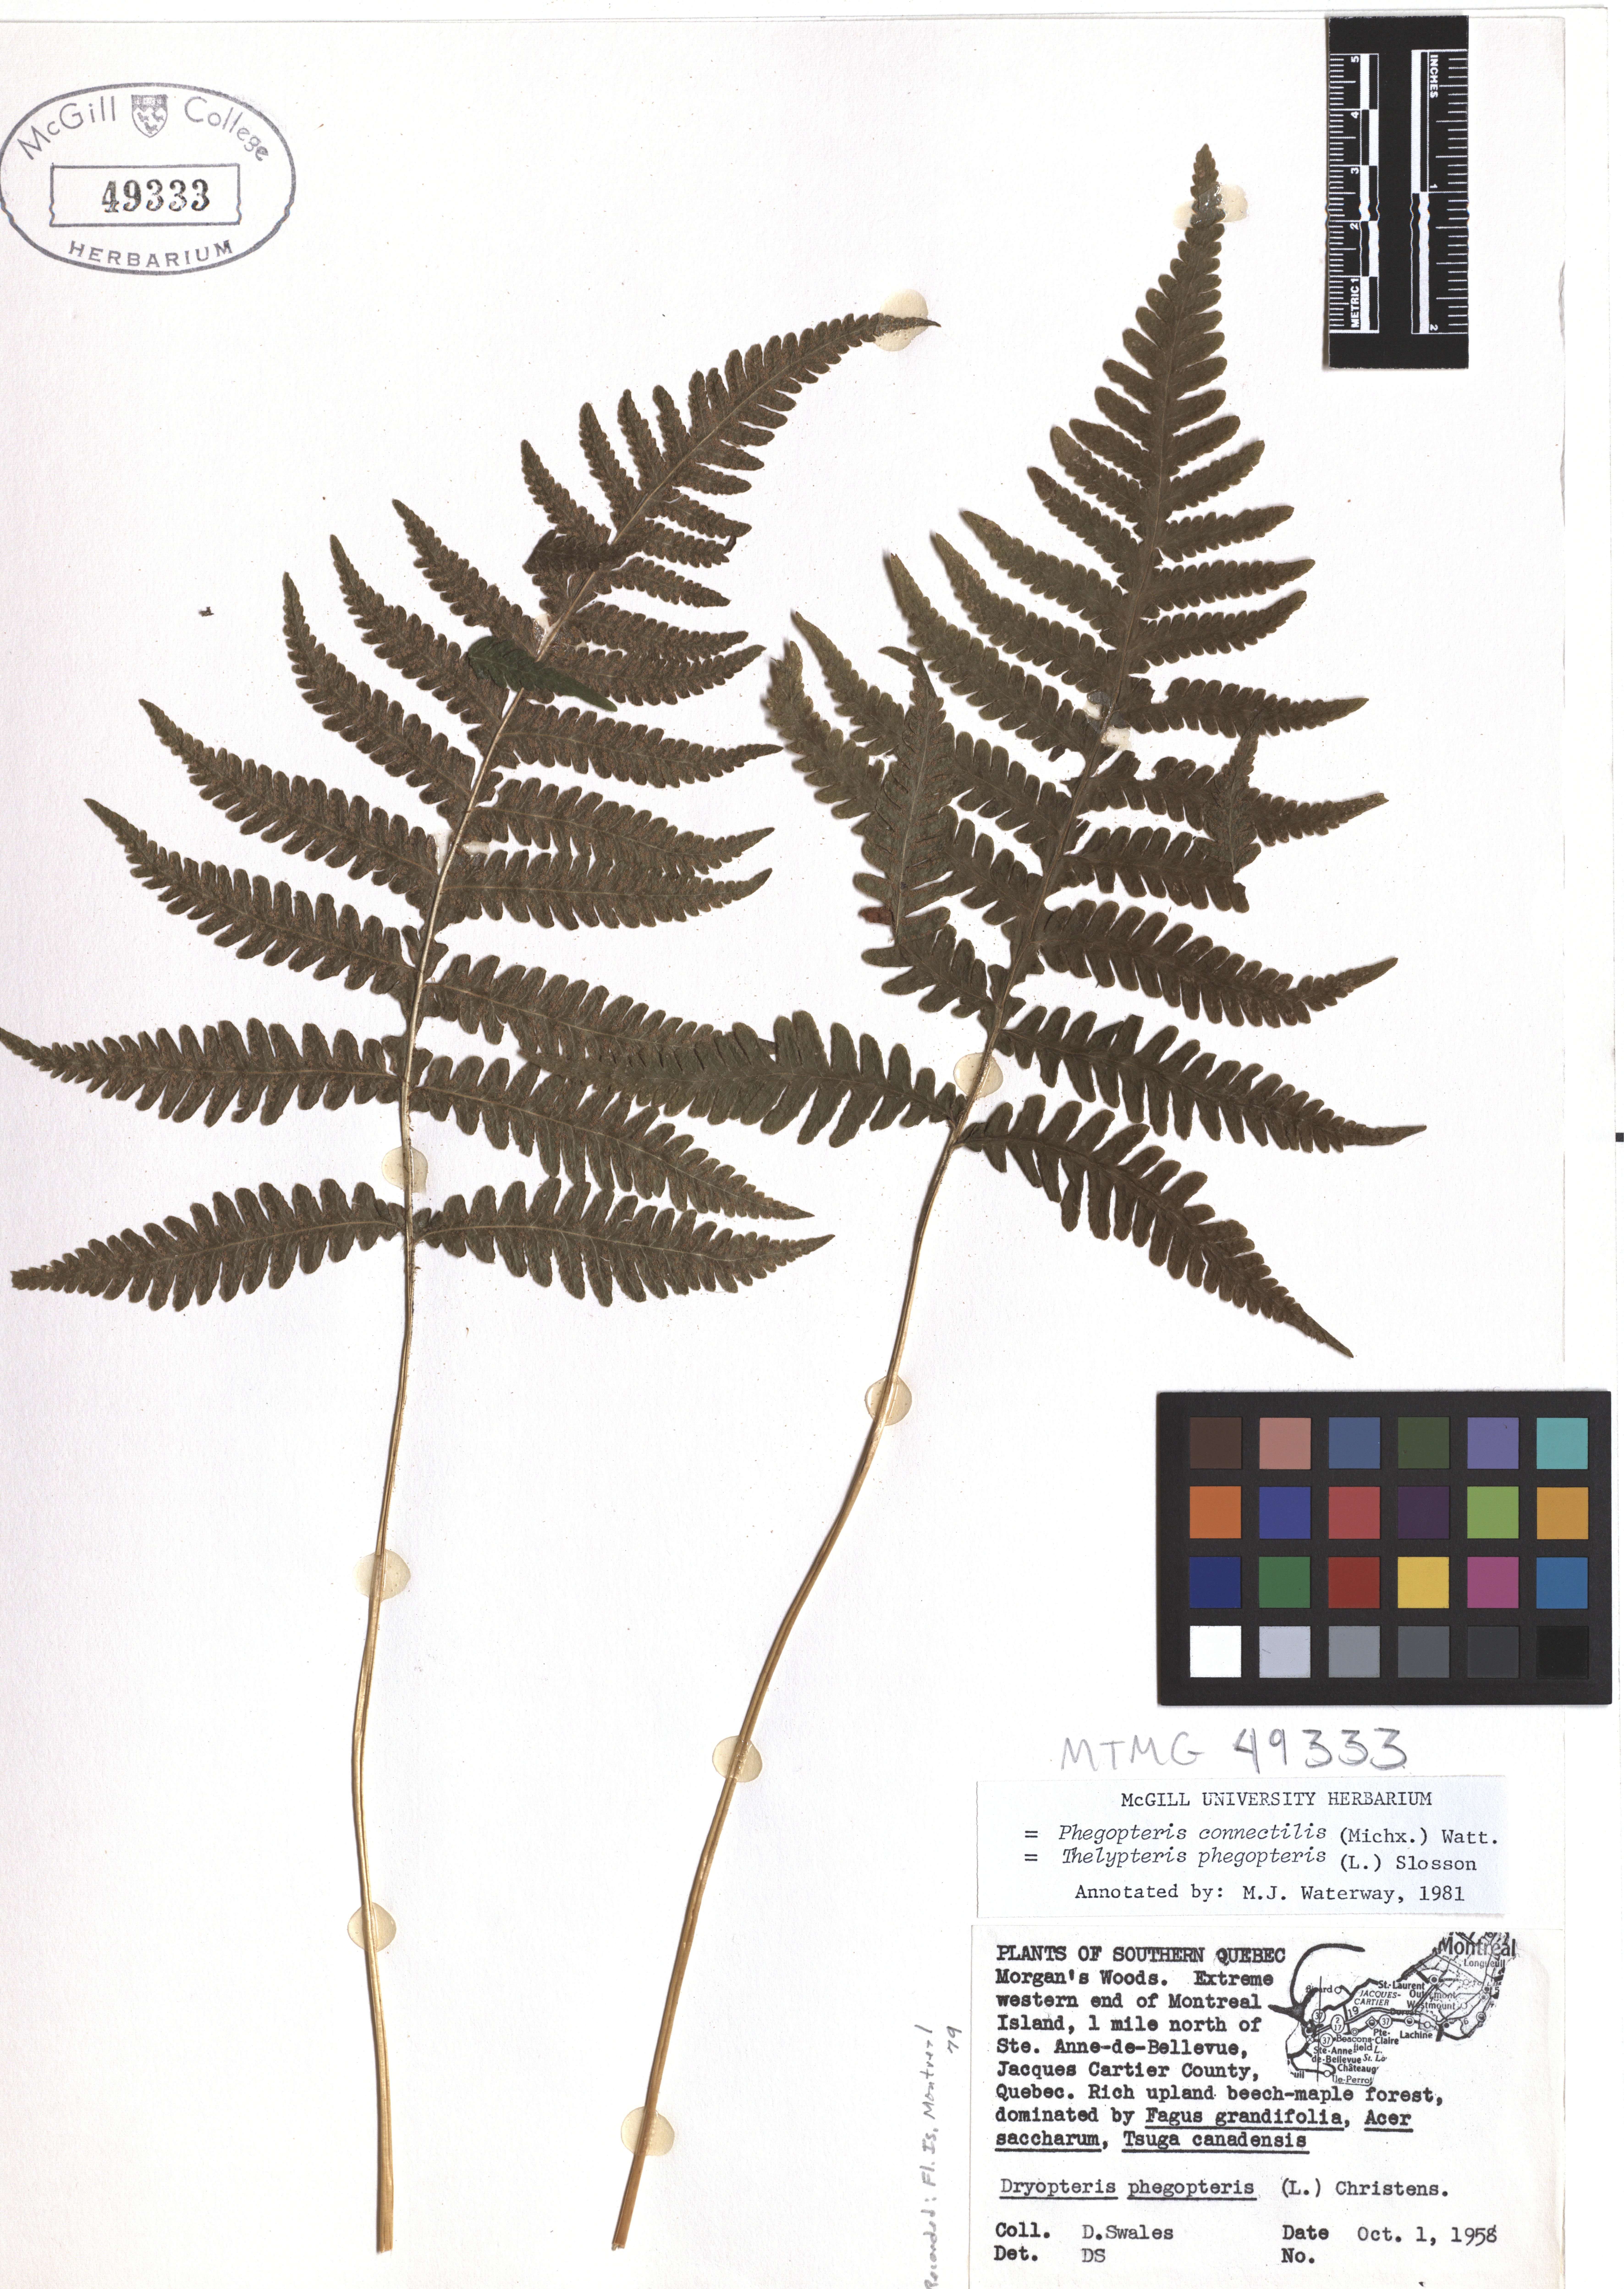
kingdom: Plantae
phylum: Tracheophyta
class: Polypodiopsida
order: Polypodiales
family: Thelypteridaceae
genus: Phegopteris
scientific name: Phegopteris connectilis
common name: Beech fern
